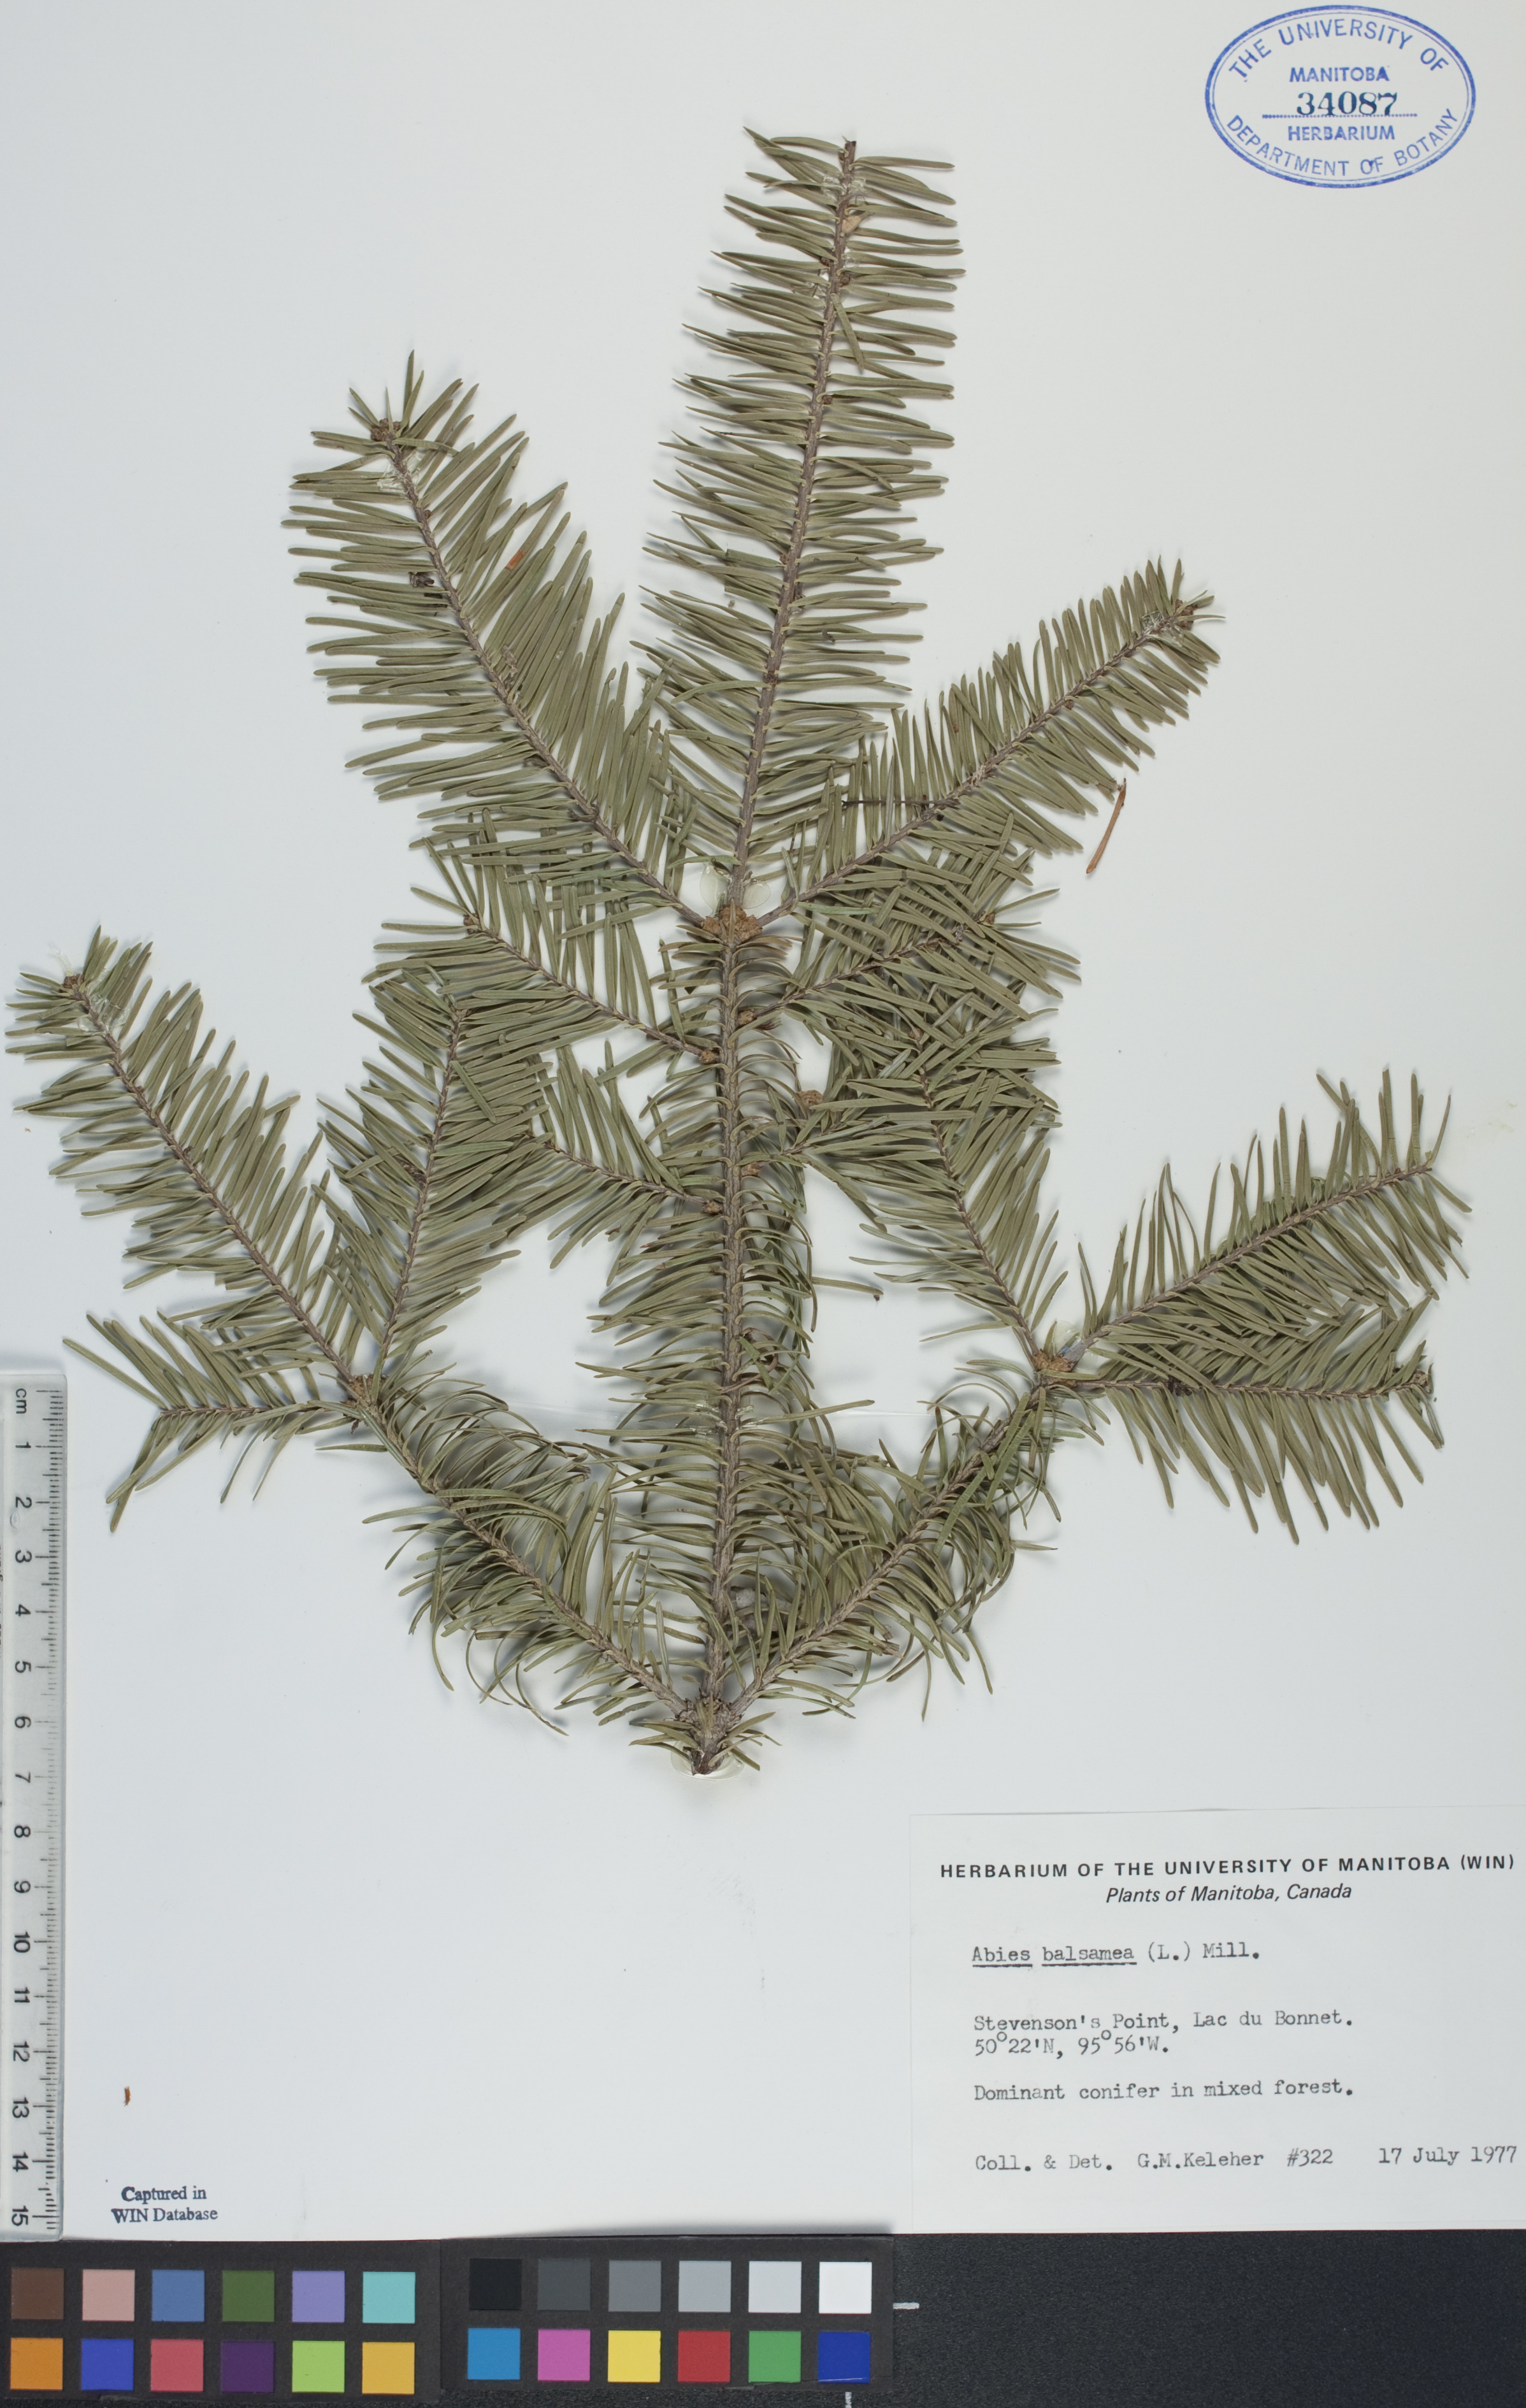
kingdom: Plantae
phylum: Tracheophyta
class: Pinopsida
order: Pinales
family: Pinaceae
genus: Abies
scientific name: Abies balsamea
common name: Balsam fir
